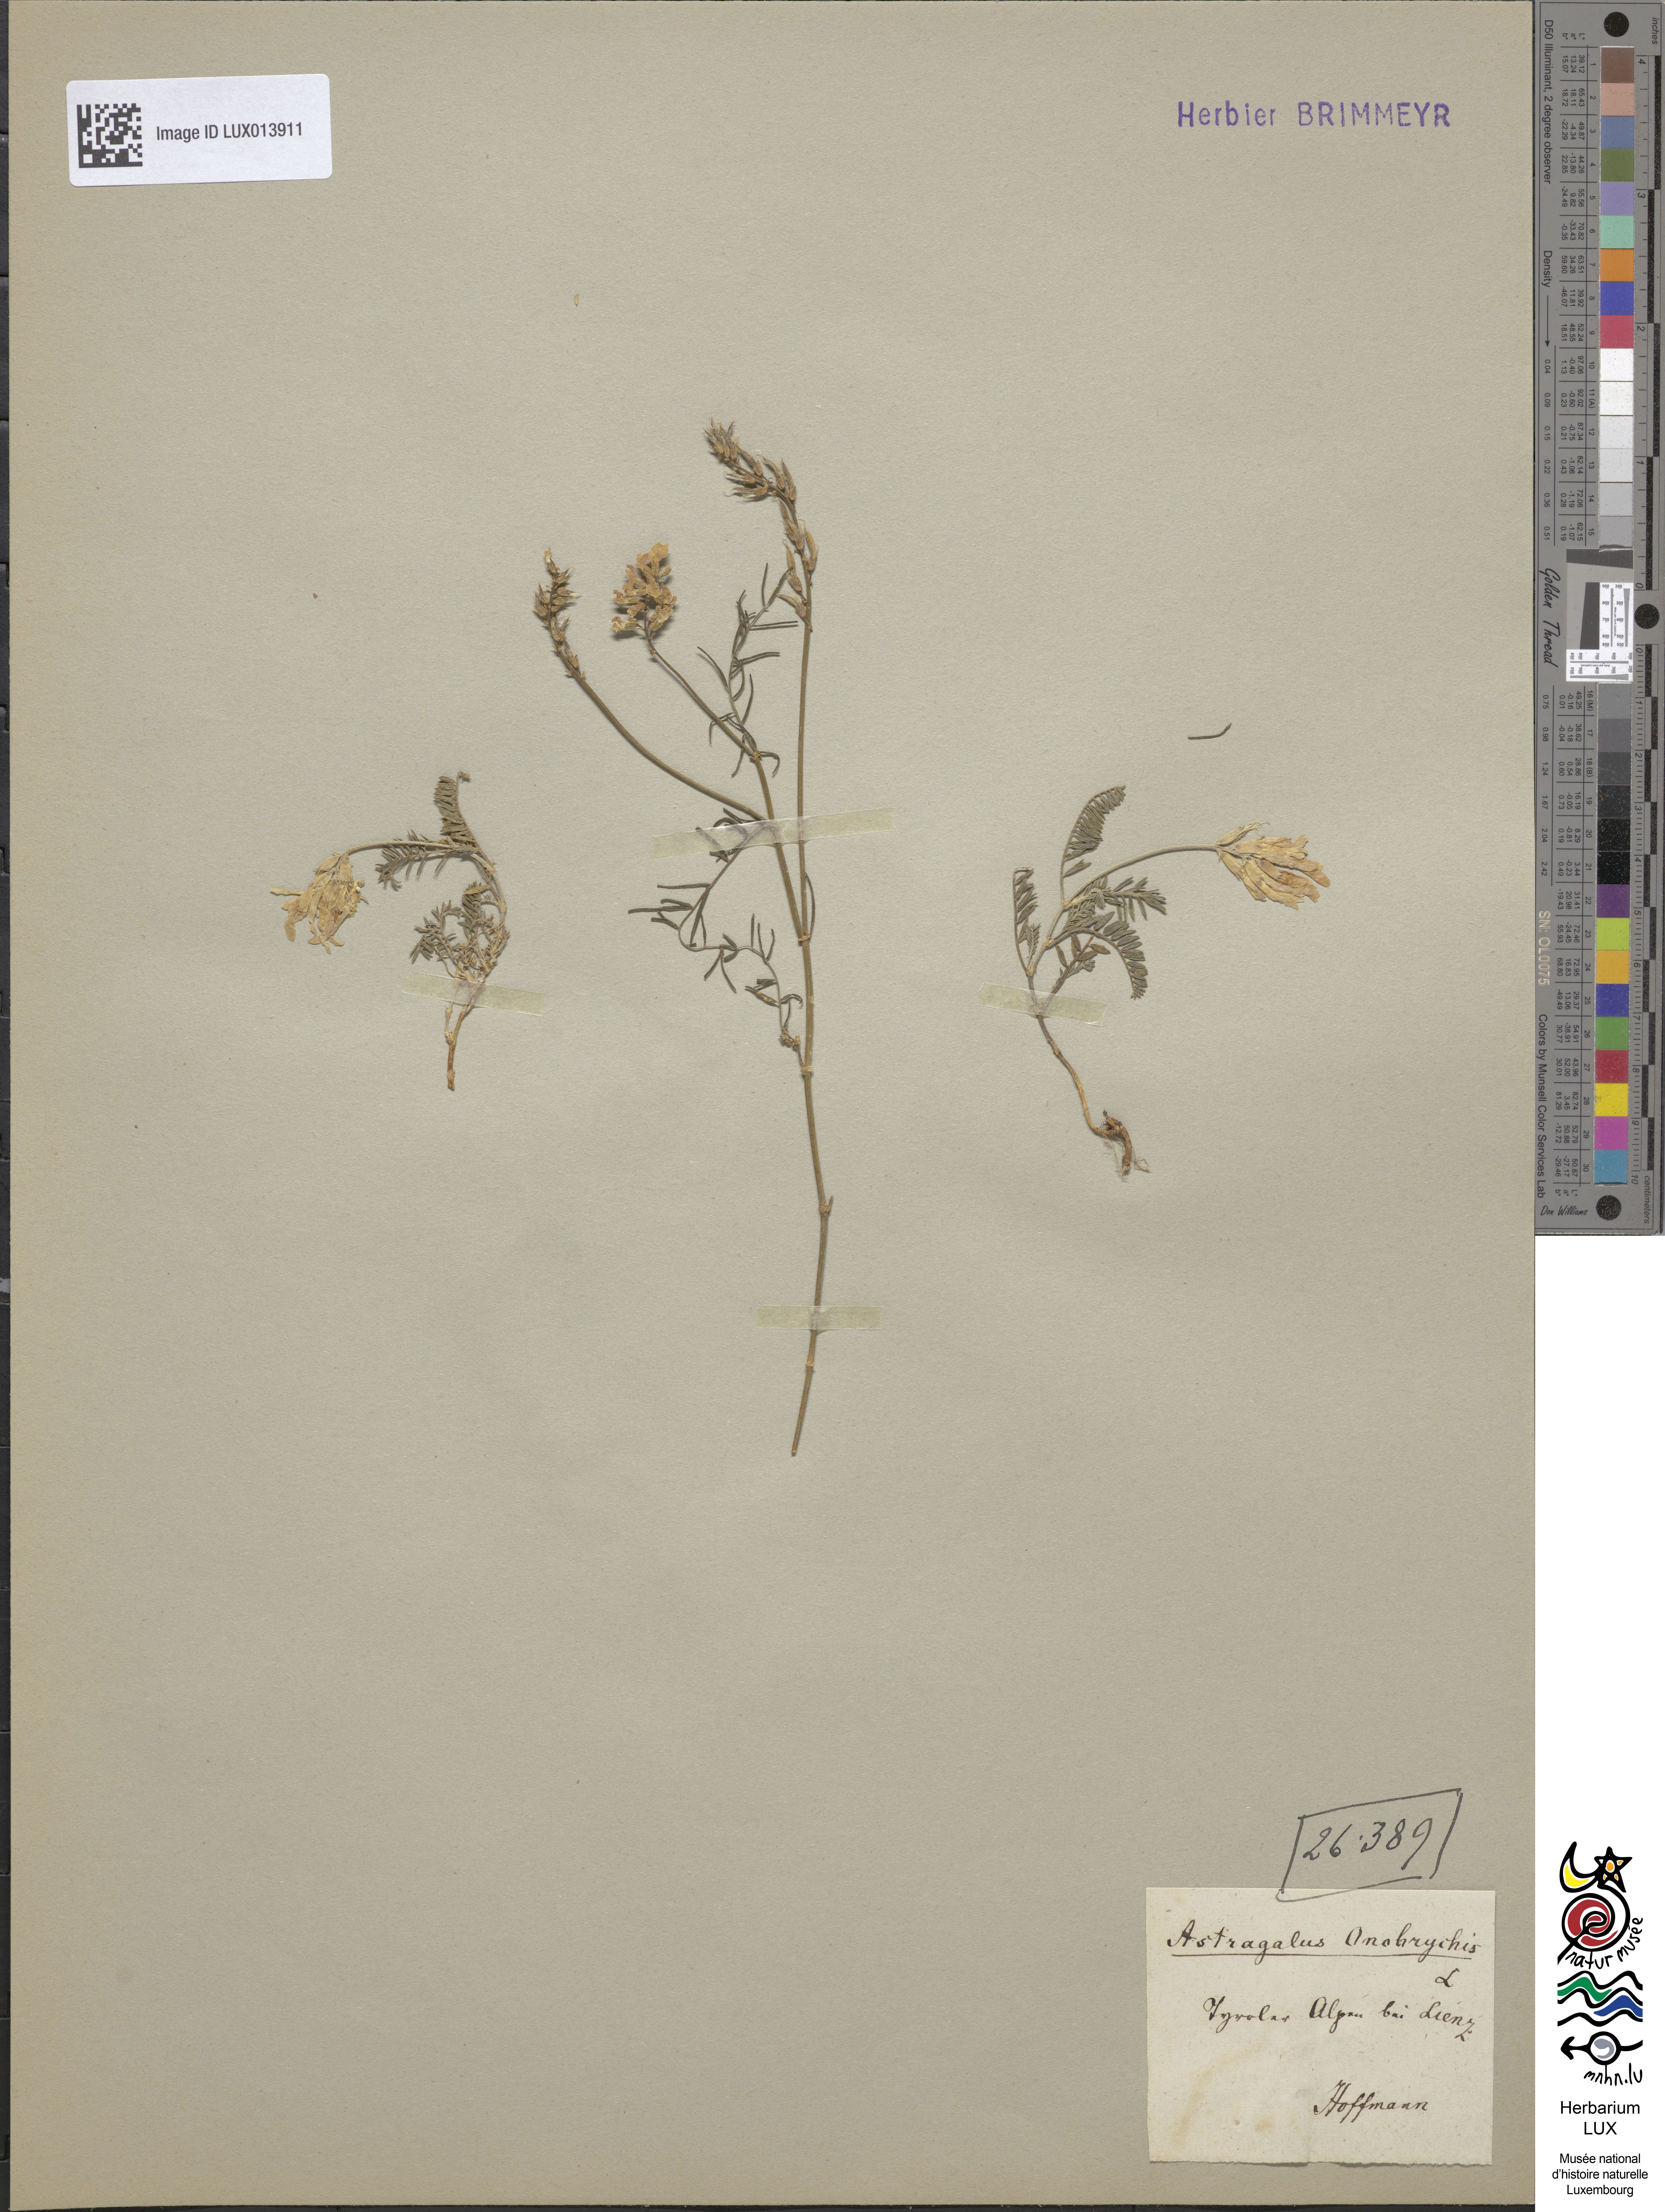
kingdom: Plantae
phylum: Tracheophyta
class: Magnoliopsida
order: Fabales
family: Fabaceae
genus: Astragalus
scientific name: Astragalus onobrychis
